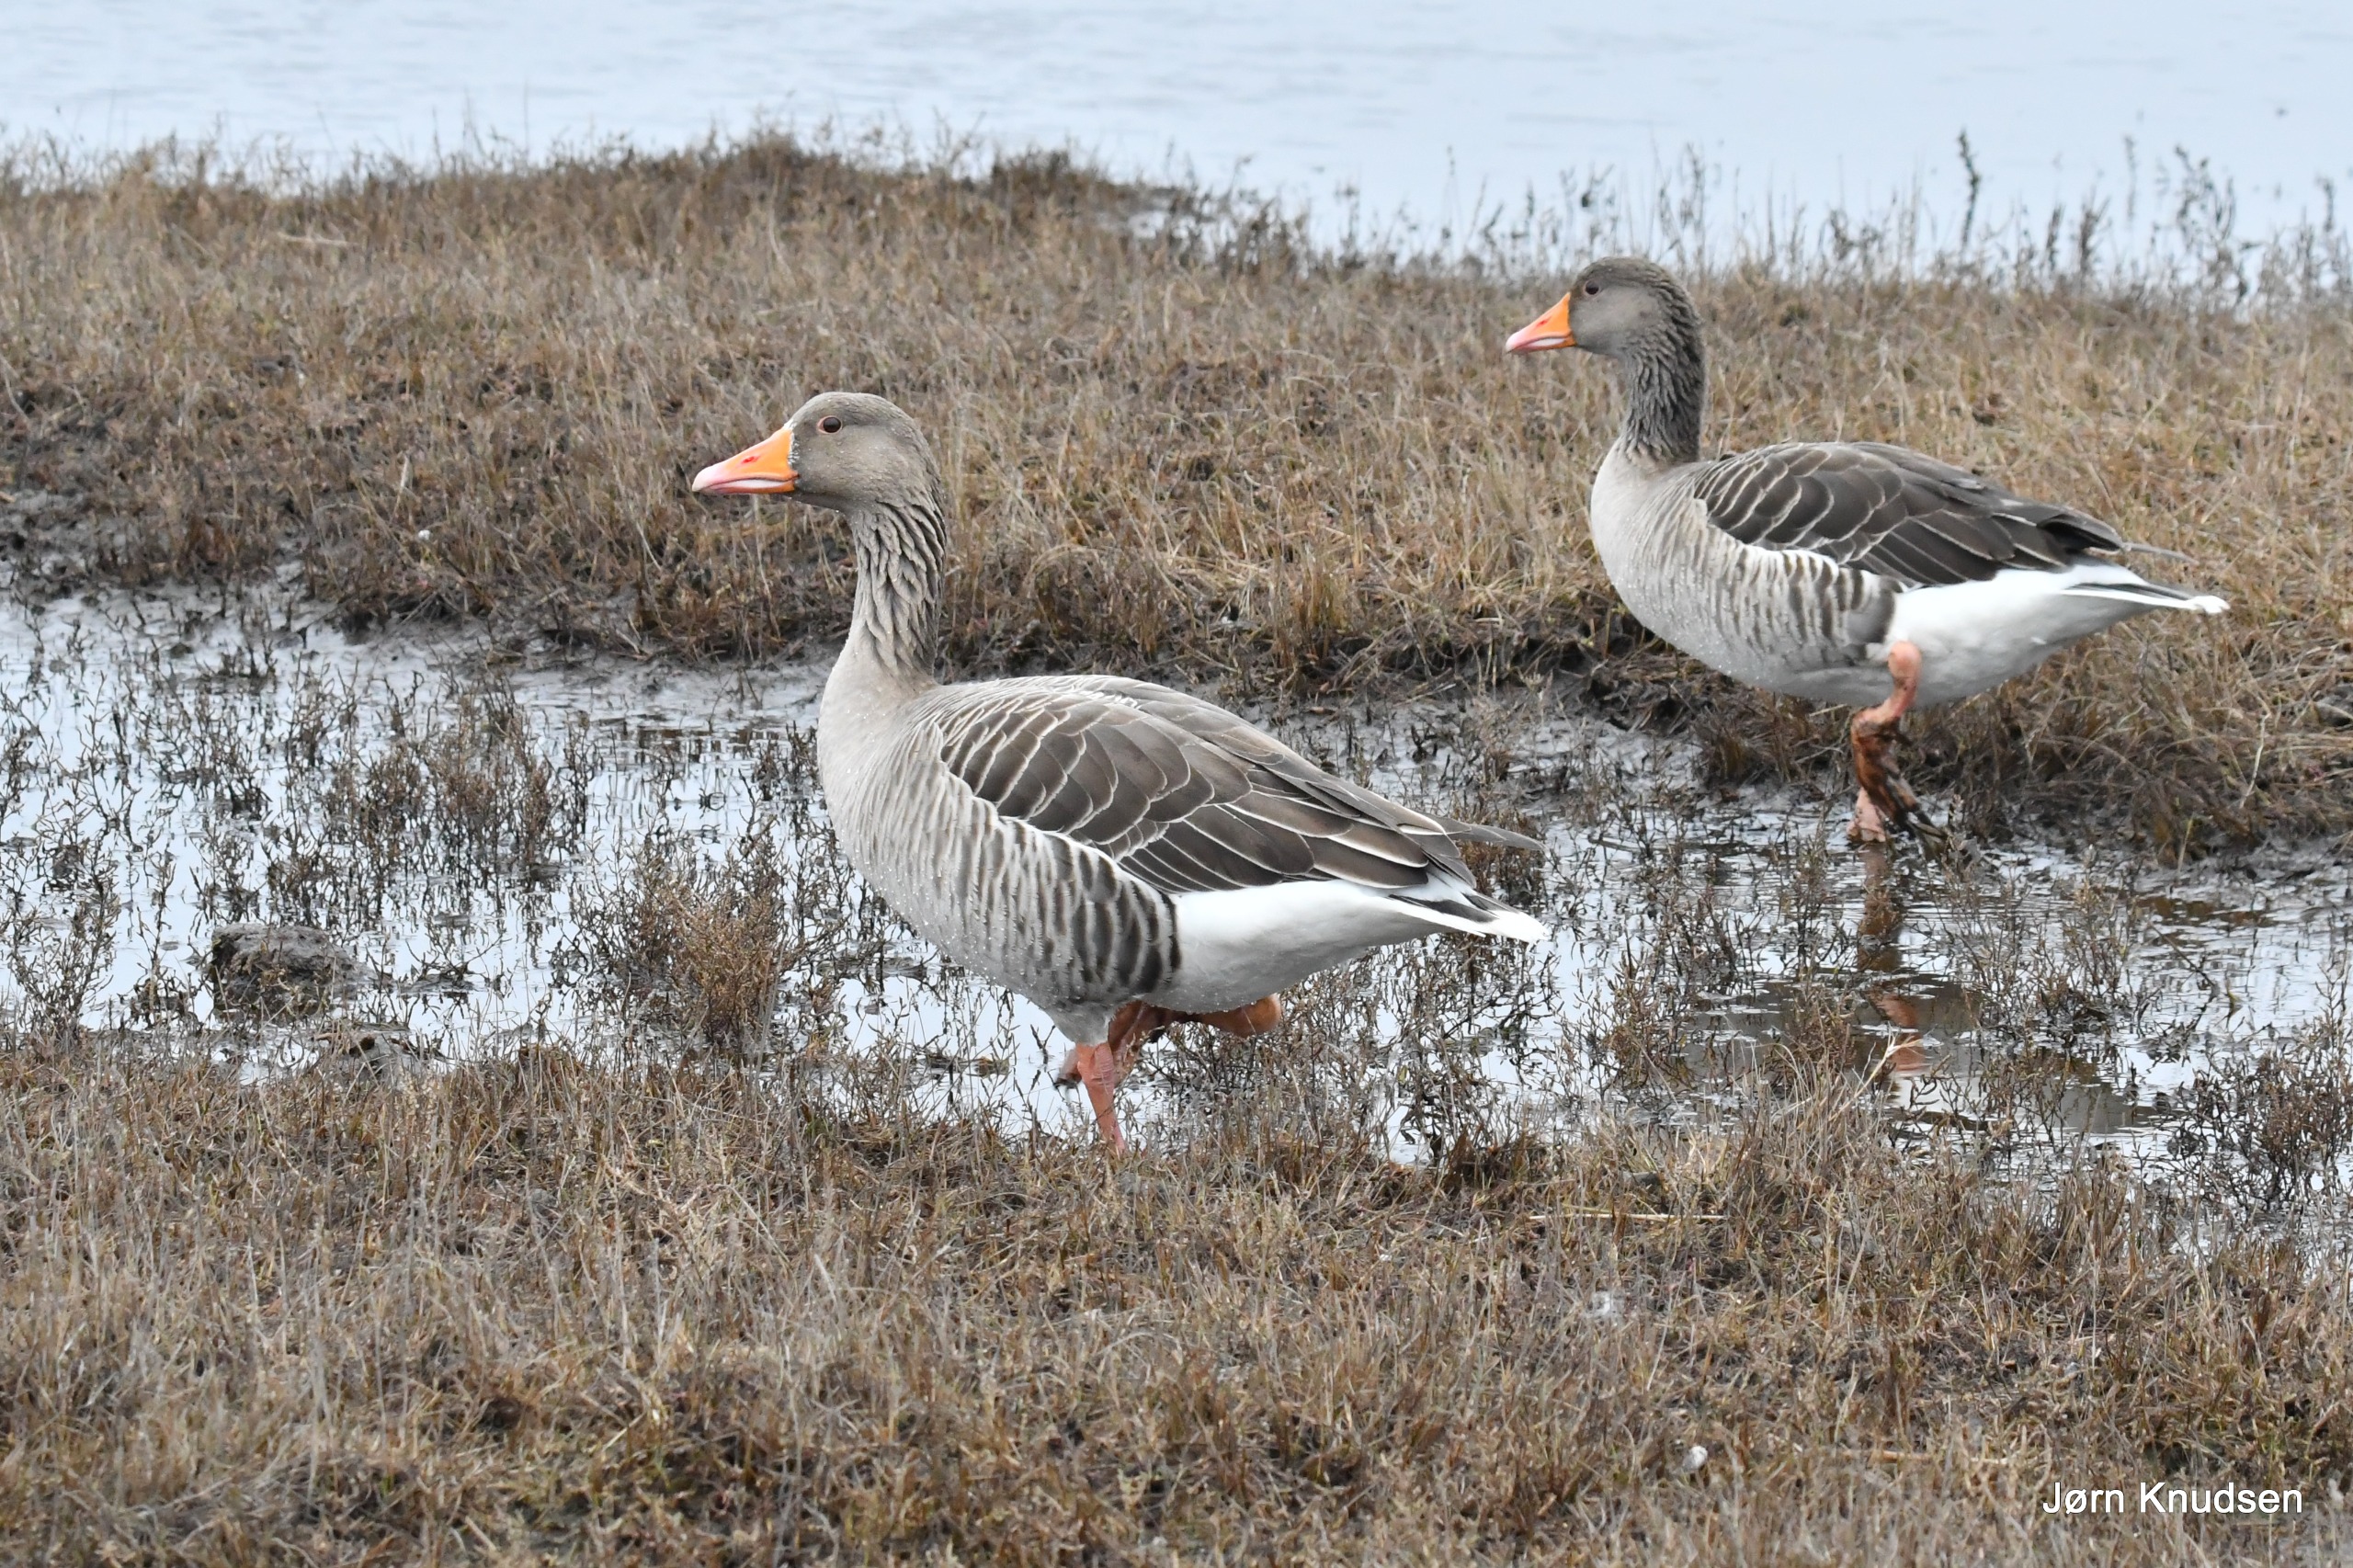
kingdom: Animalia
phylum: Chordata
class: Aves
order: Anseriformes
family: Anatidae
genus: Anser
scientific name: Anser anser
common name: Grågås
